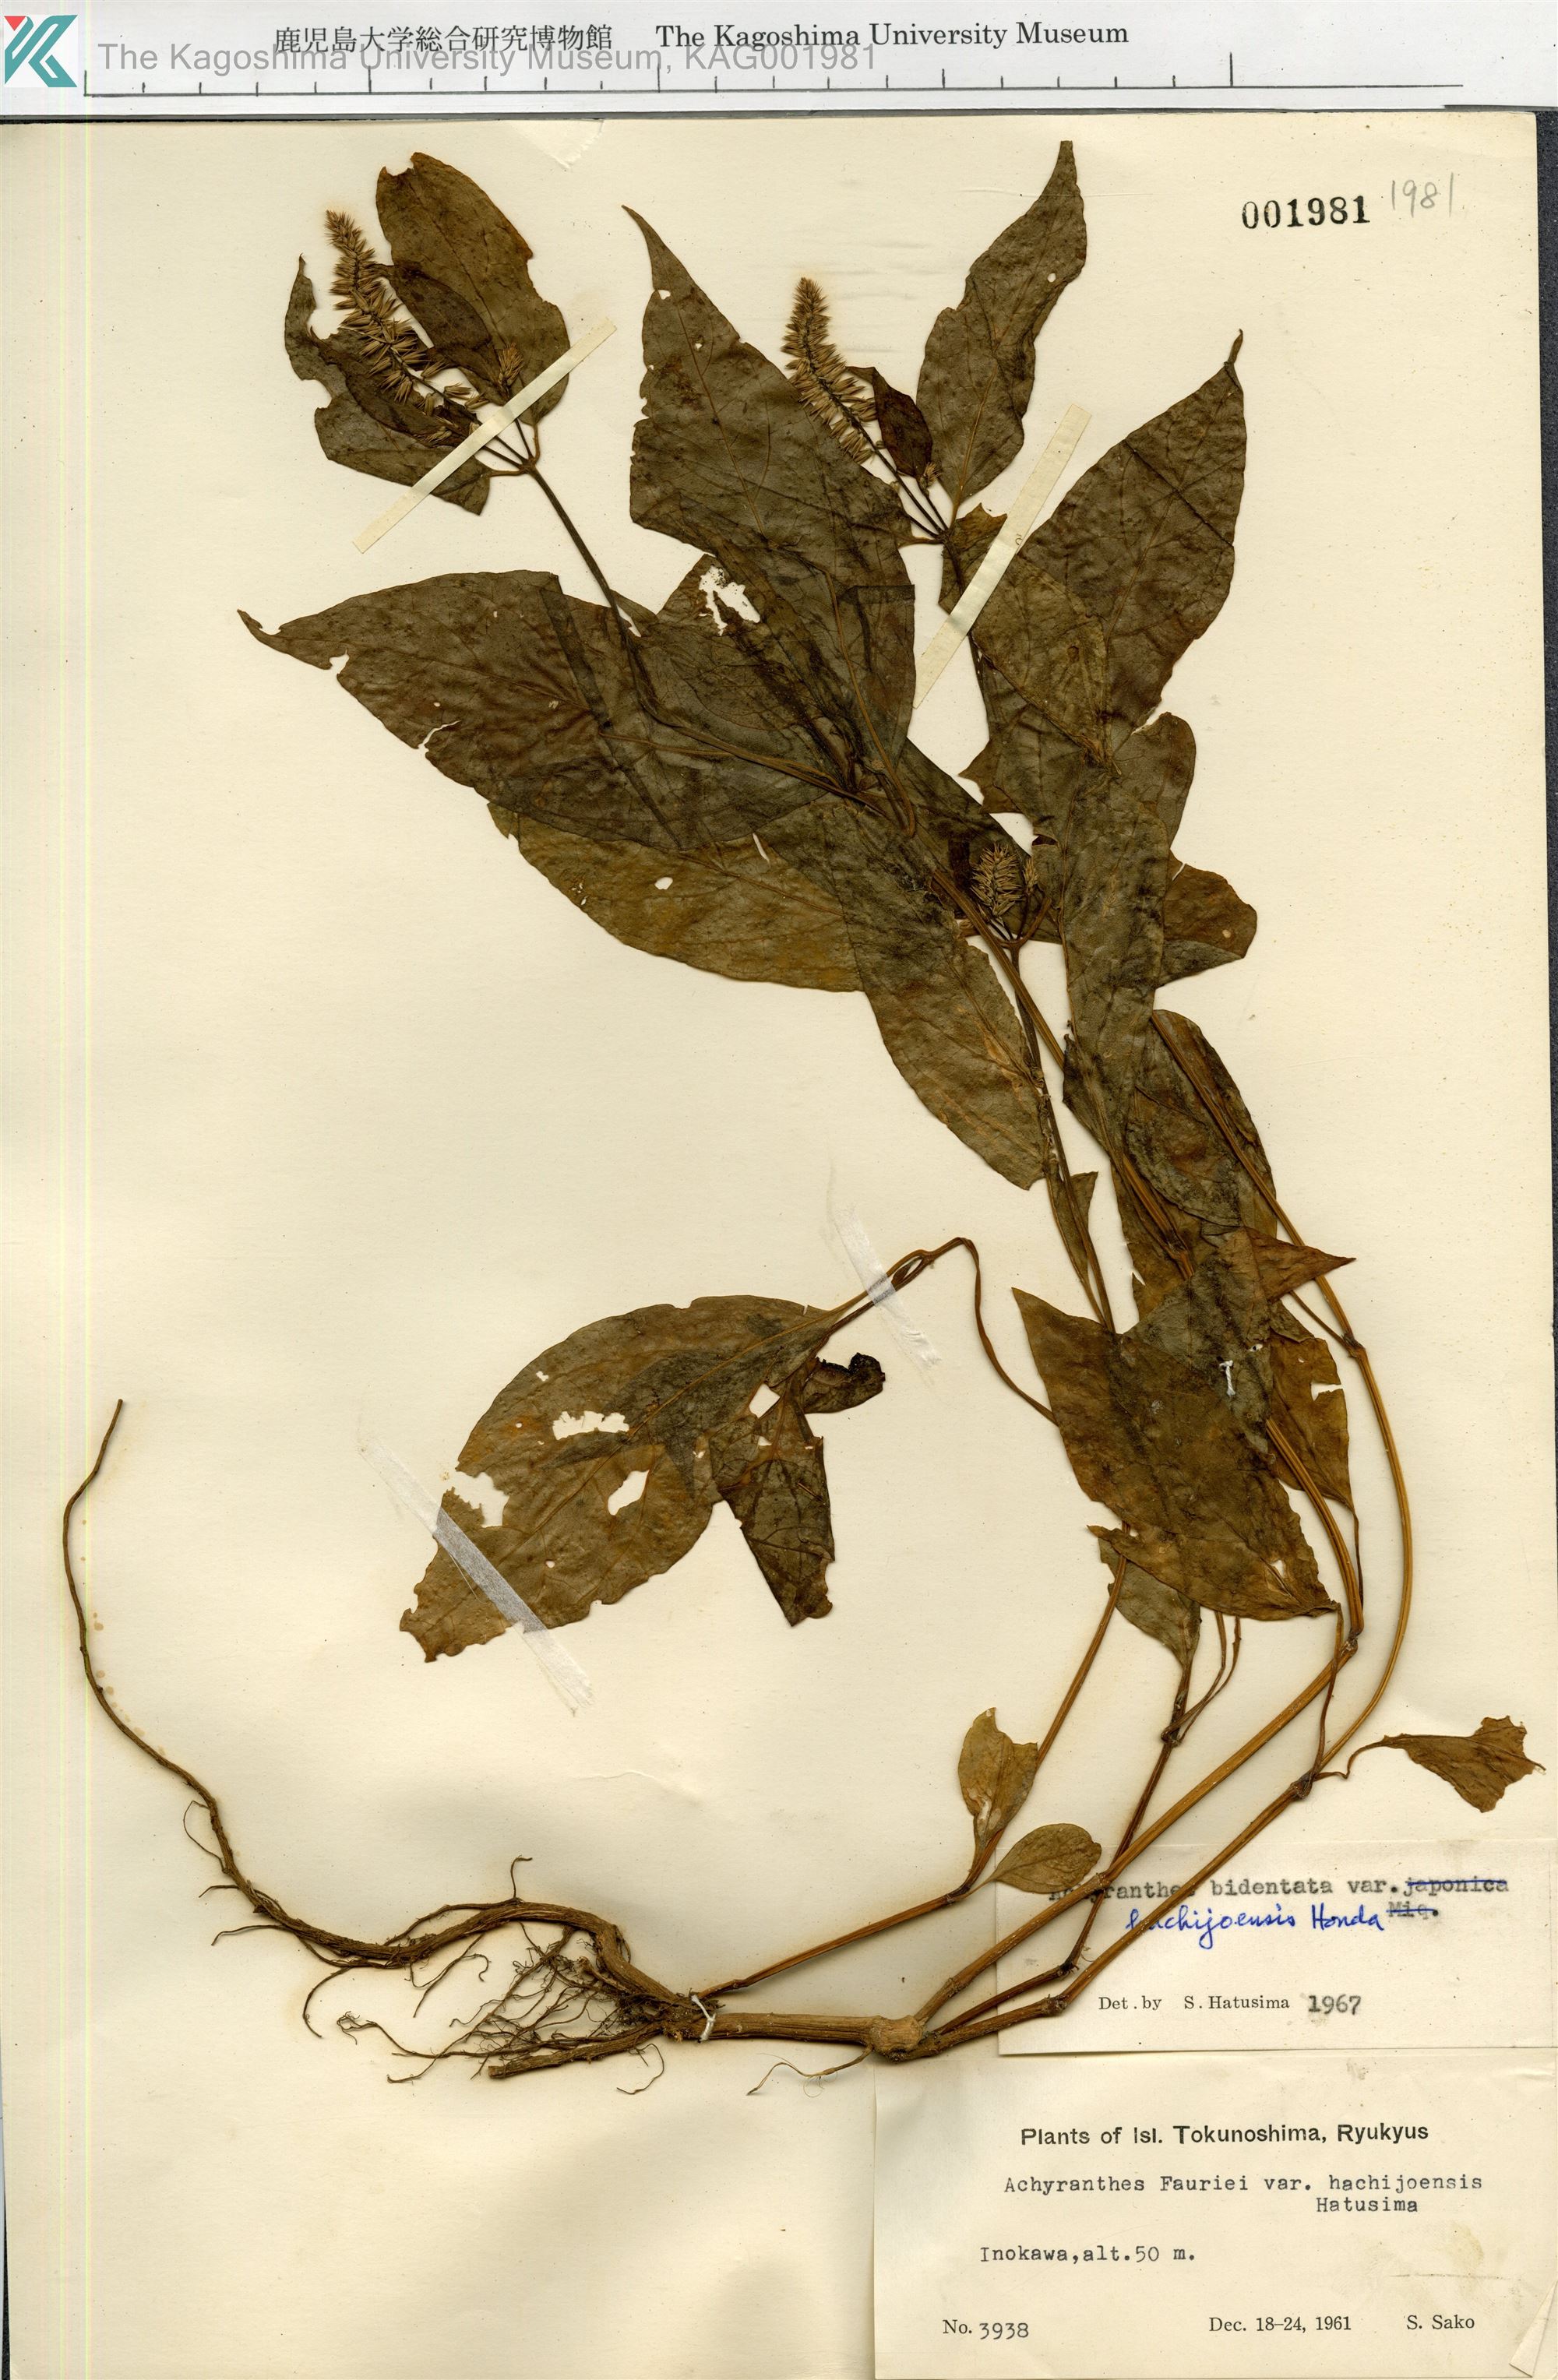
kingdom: Plantae
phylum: Tracheophyta
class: Magnoliopsida
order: Caryophyllales
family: Amaranthaceae
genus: Achyranthes
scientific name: Achyranthes bidentata
